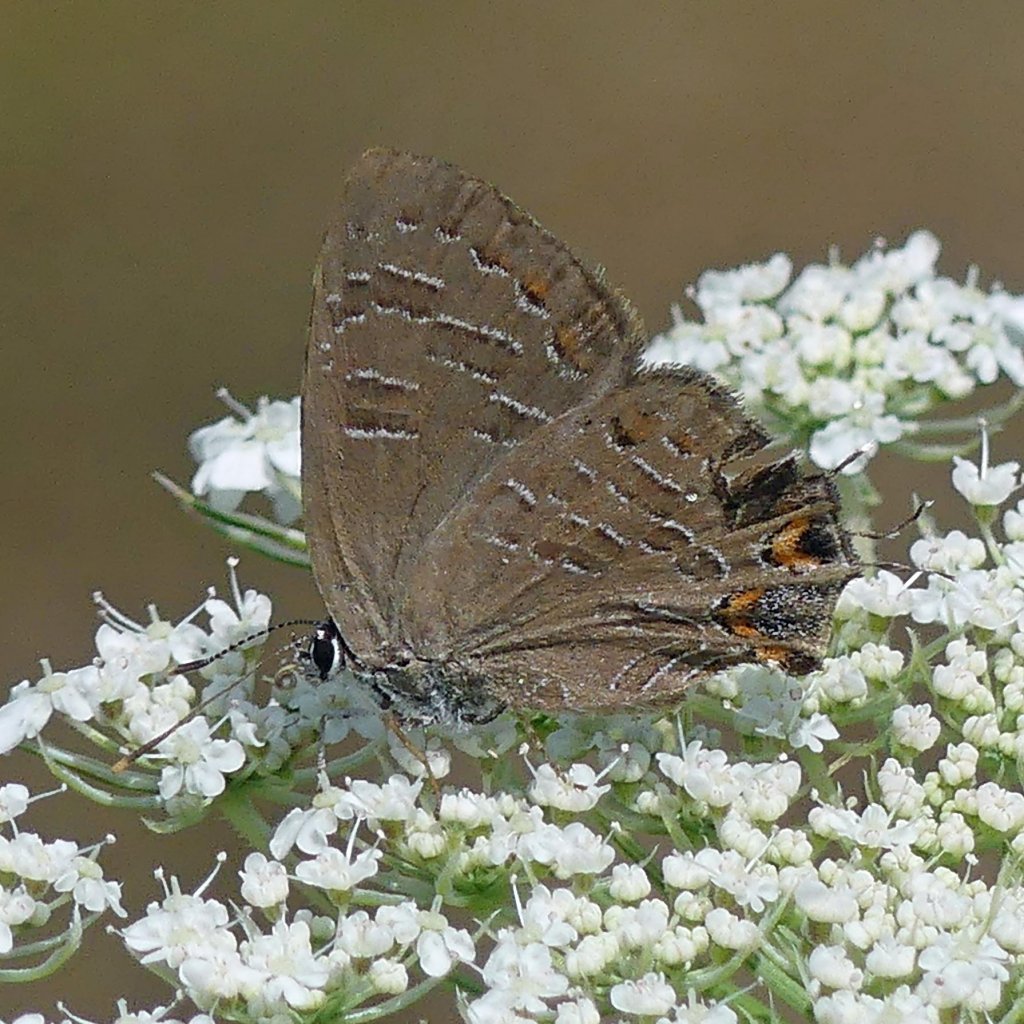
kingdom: Animalia
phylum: Arthropoda
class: Insecta
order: Lepidoptera
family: Lycaenidae
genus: Satyrium
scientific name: Satyrium liparops
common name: Striped Hairstreak
